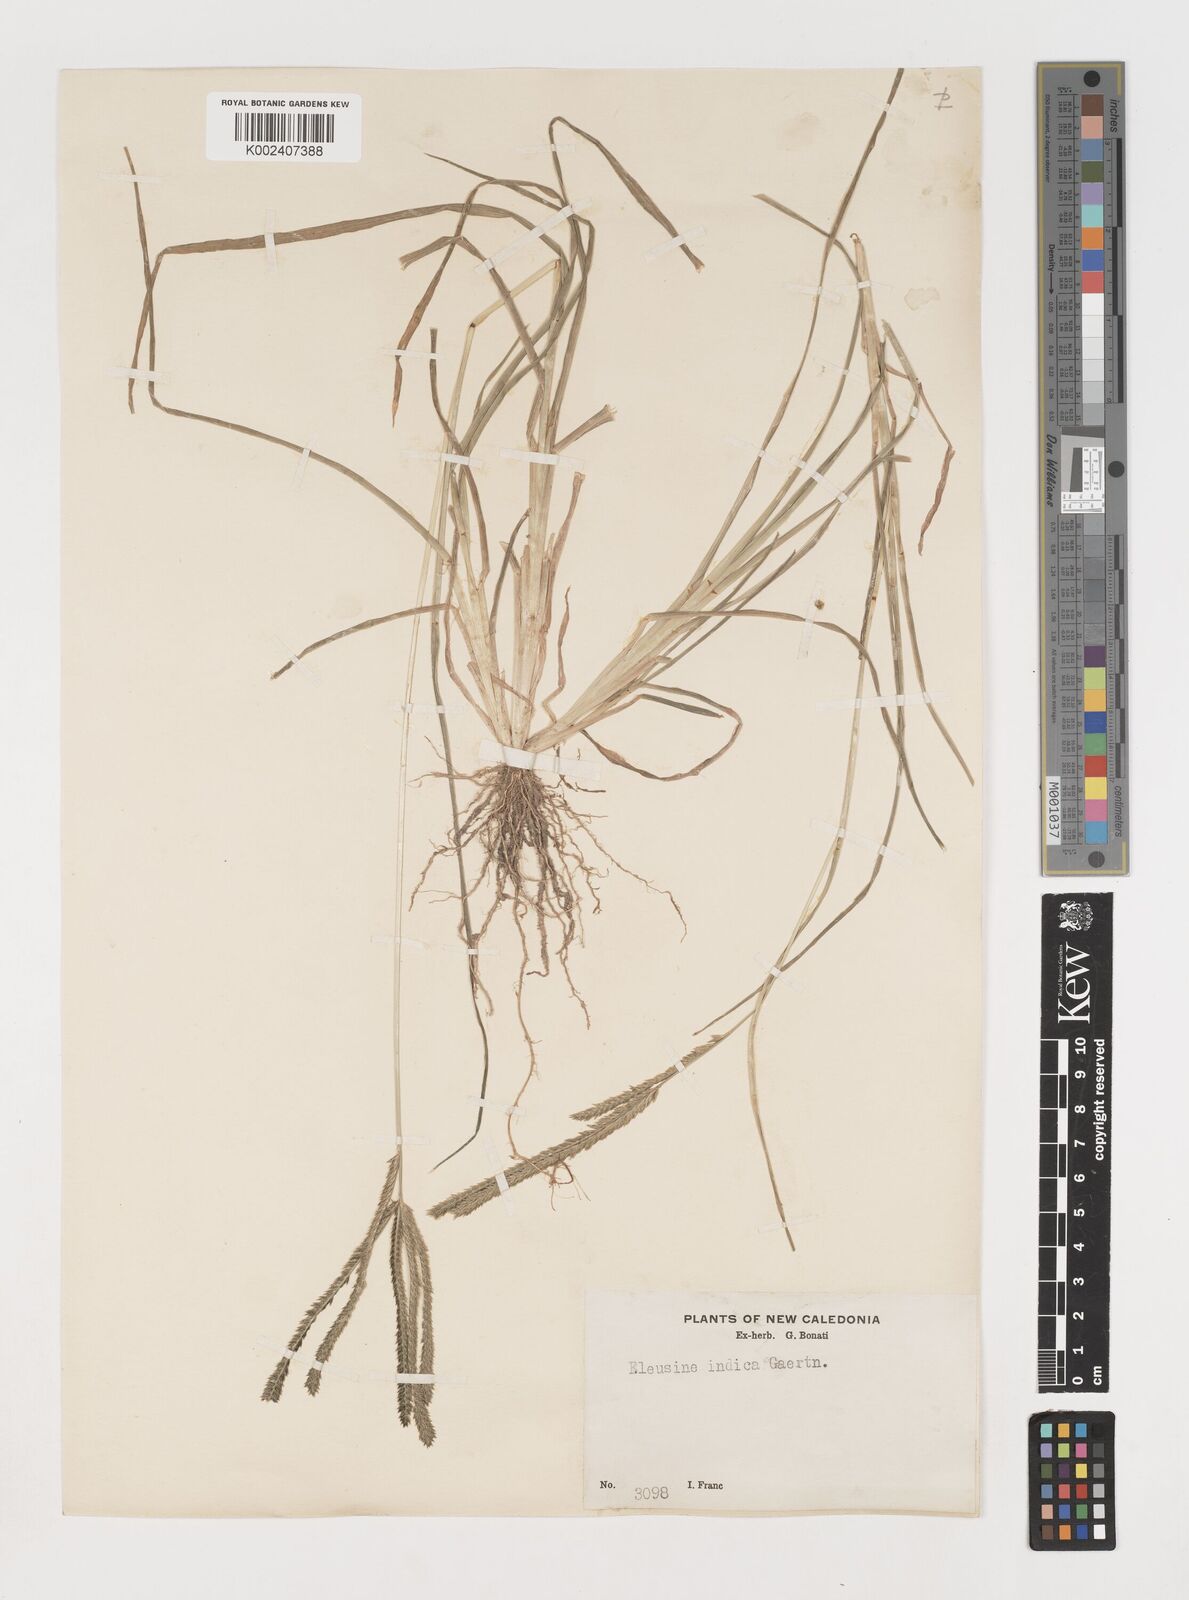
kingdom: Plantae
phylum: Tracheophyta
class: Liliopsida
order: Poales
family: Poaceae
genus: Eleusine
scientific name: Eleusine indica
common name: Yard-grass
